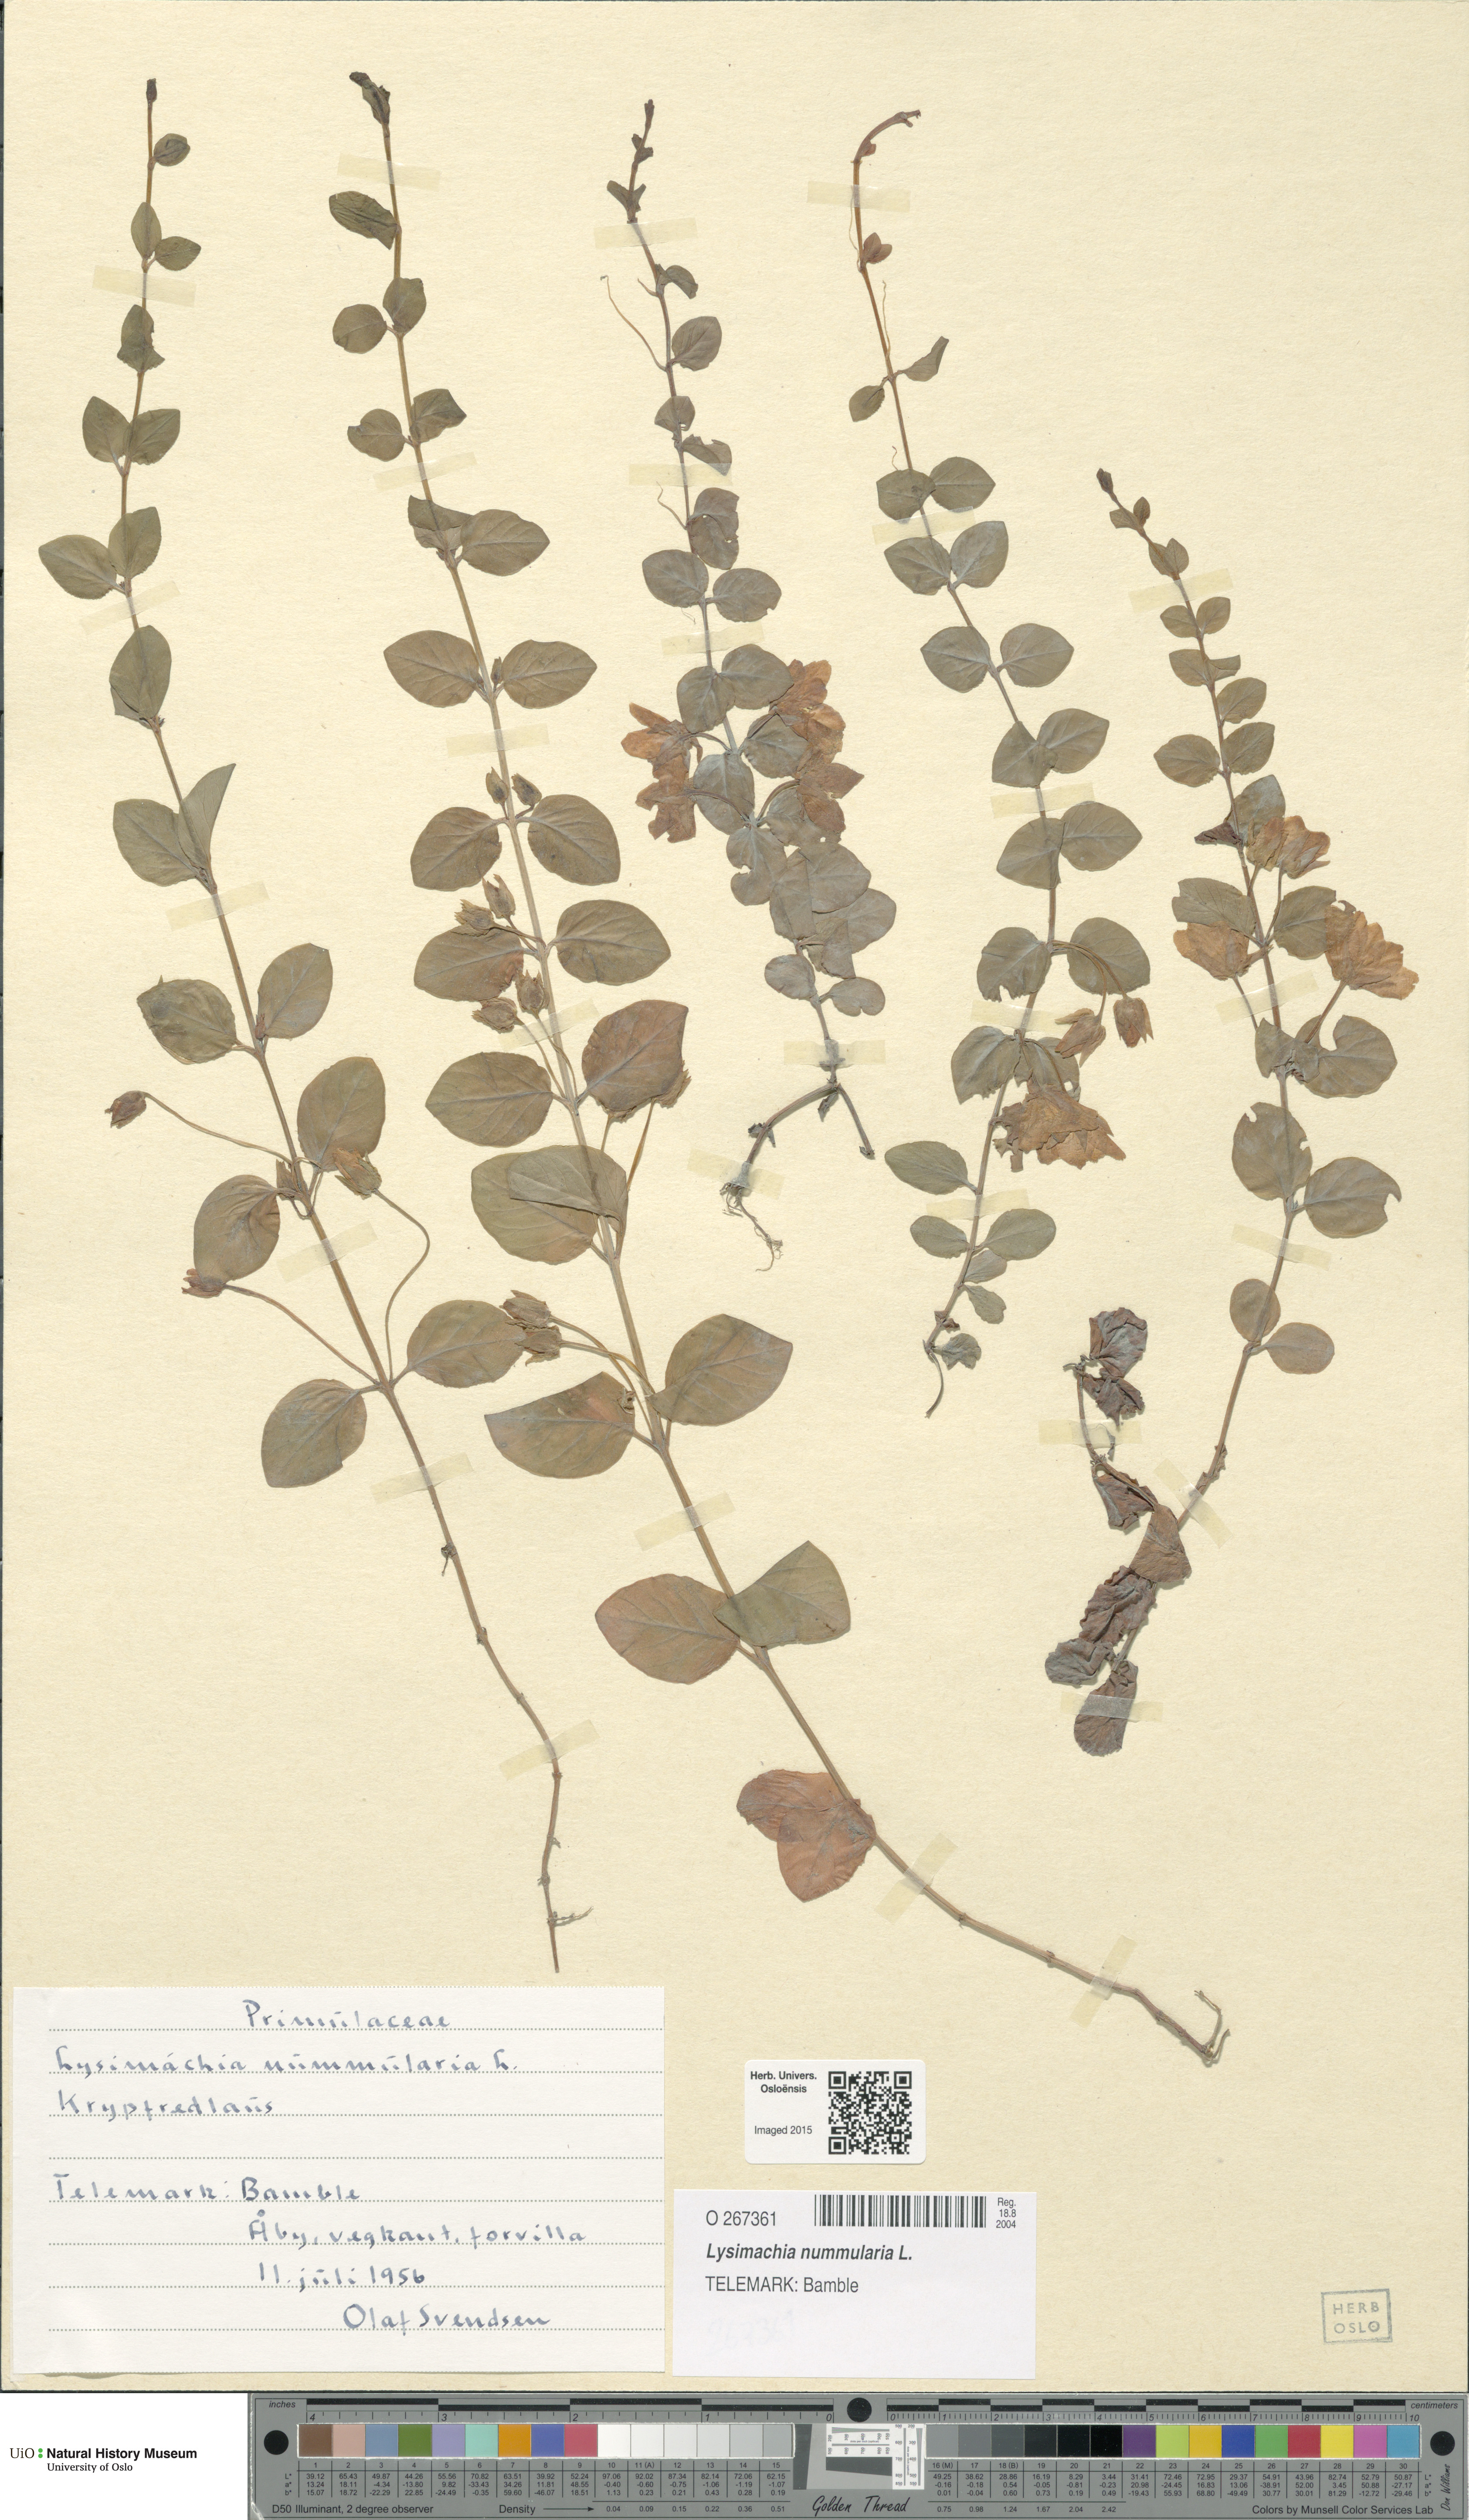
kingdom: Plantae
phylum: Tracheophyta
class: Magnoliopsida
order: Ericales
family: Primulaceae
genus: Lysimachia
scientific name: Lysimachia nummularia
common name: Moneywort
